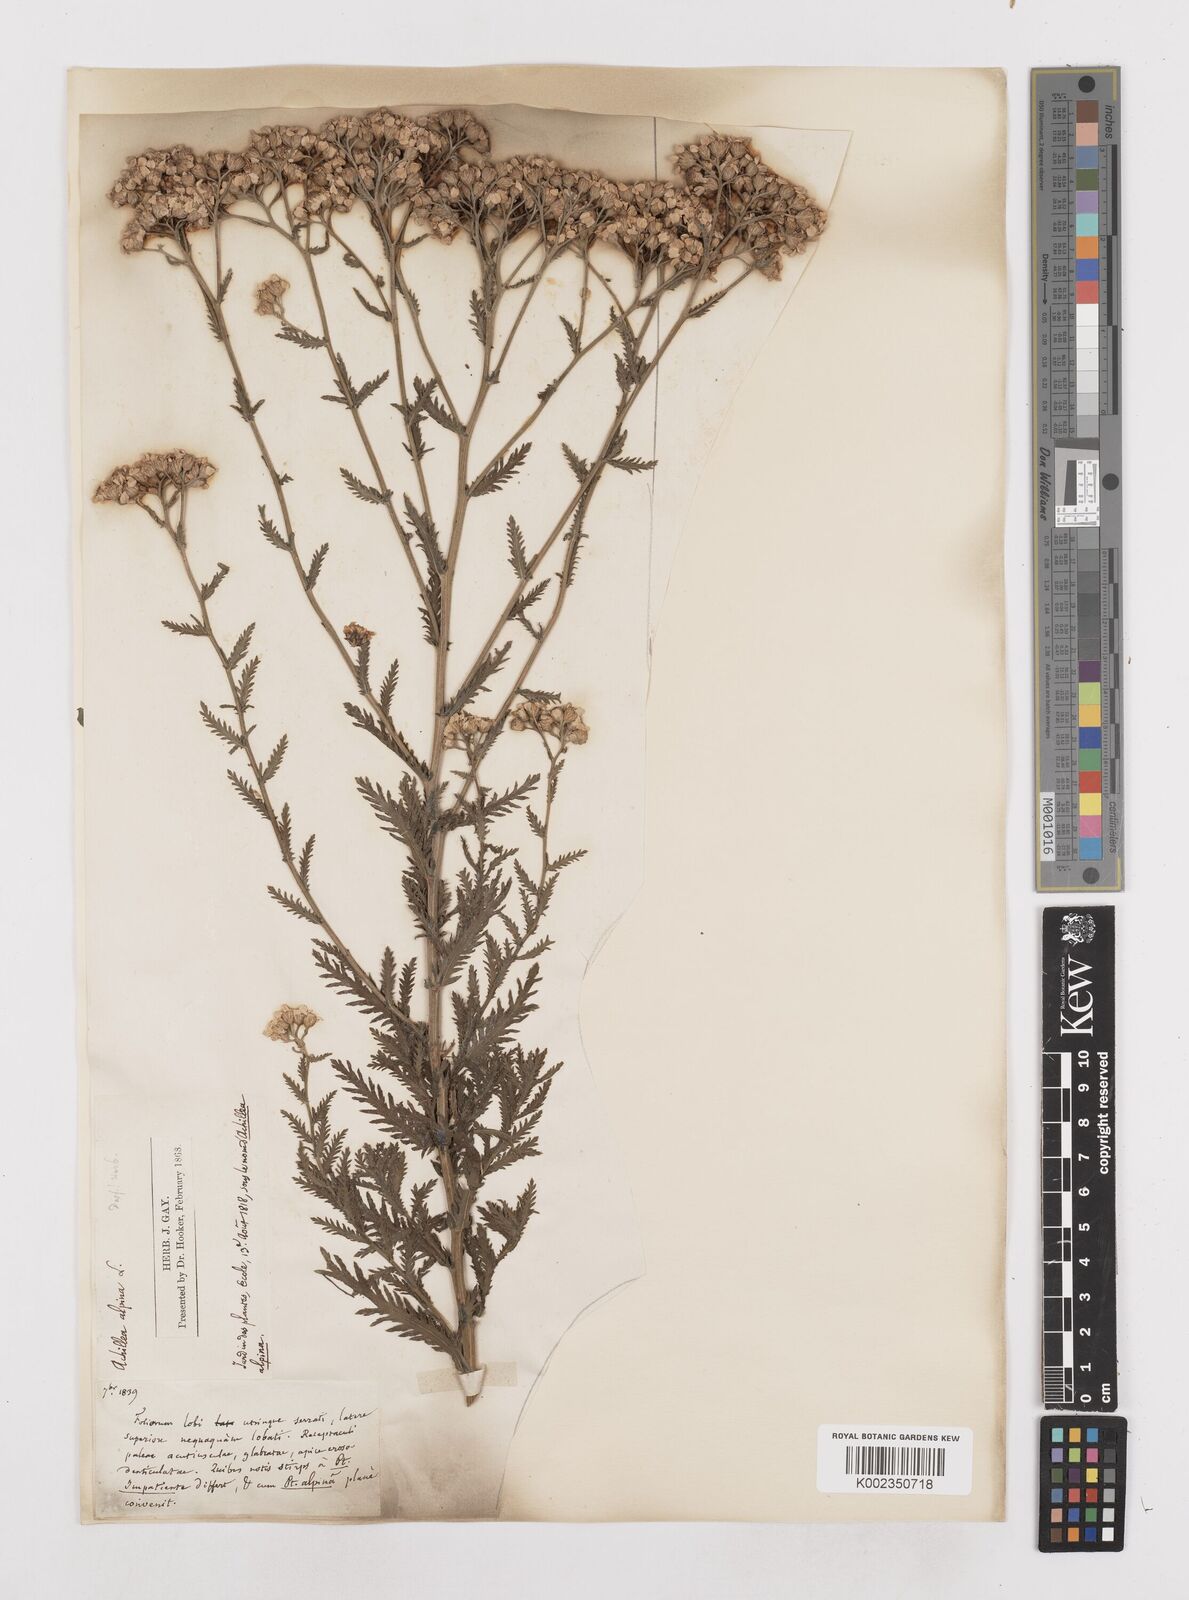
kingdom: Plantae
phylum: Tracheophyta
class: Magnoliopsida
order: Asterales
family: Asteraceae
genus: Achillea
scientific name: Achillea impatiens
